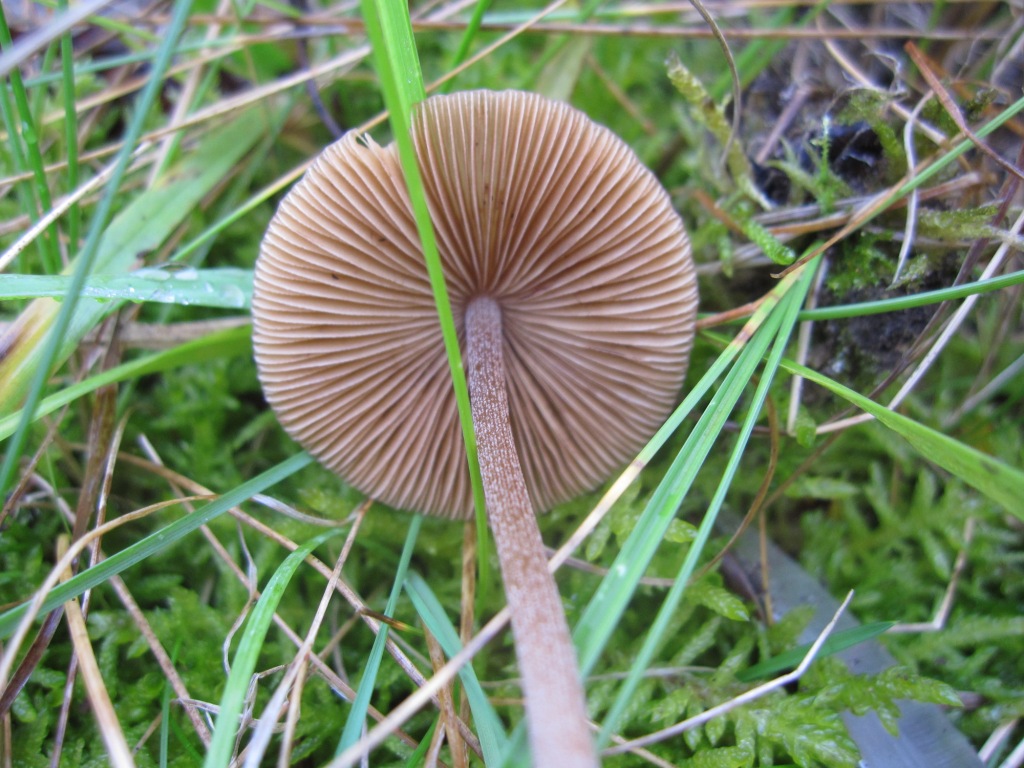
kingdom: Fungi
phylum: Basidiomycota
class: Agaricomycetes
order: Agaricales
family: Bolbitiaceae
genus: Conocybe
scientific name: Conocybe subovalis
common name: hvælvet keglehat
